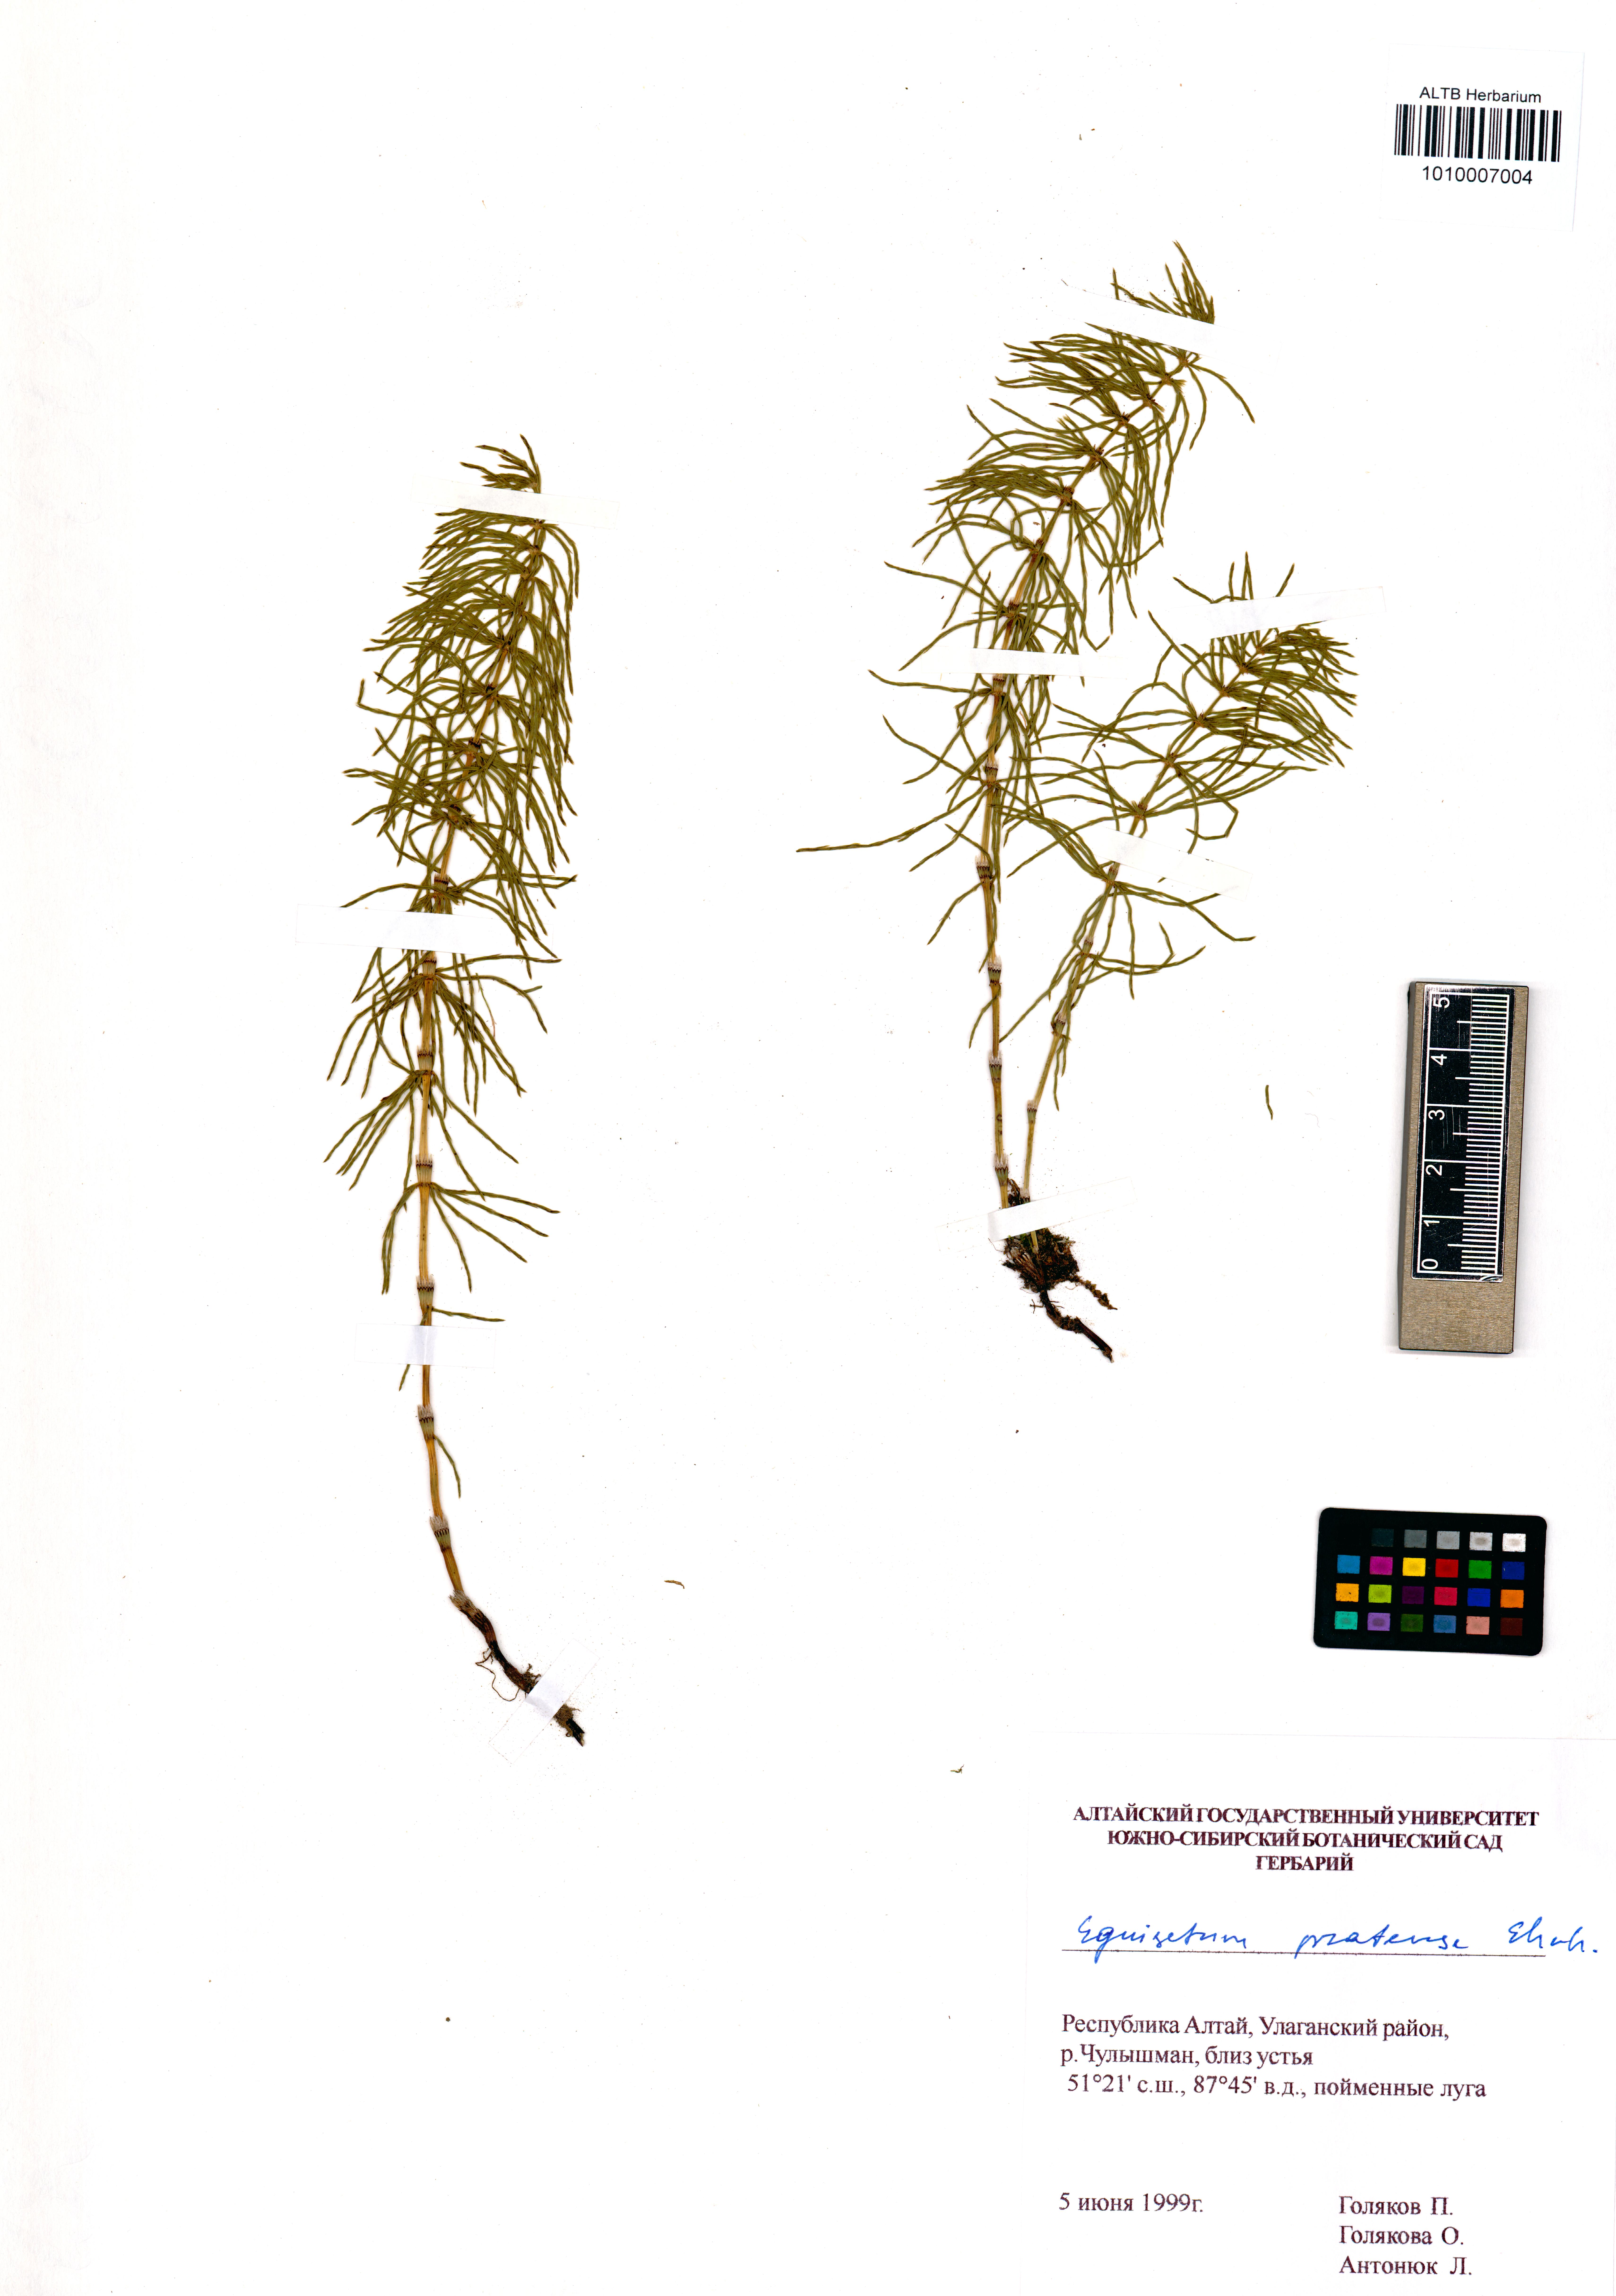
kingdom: Plantae
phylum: Tracheophyta
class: Polypodiopsida
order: Equisetales
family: Equisetaceae
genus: Equisetum
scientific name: Equisetum pratense
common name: Meadow horsetail
